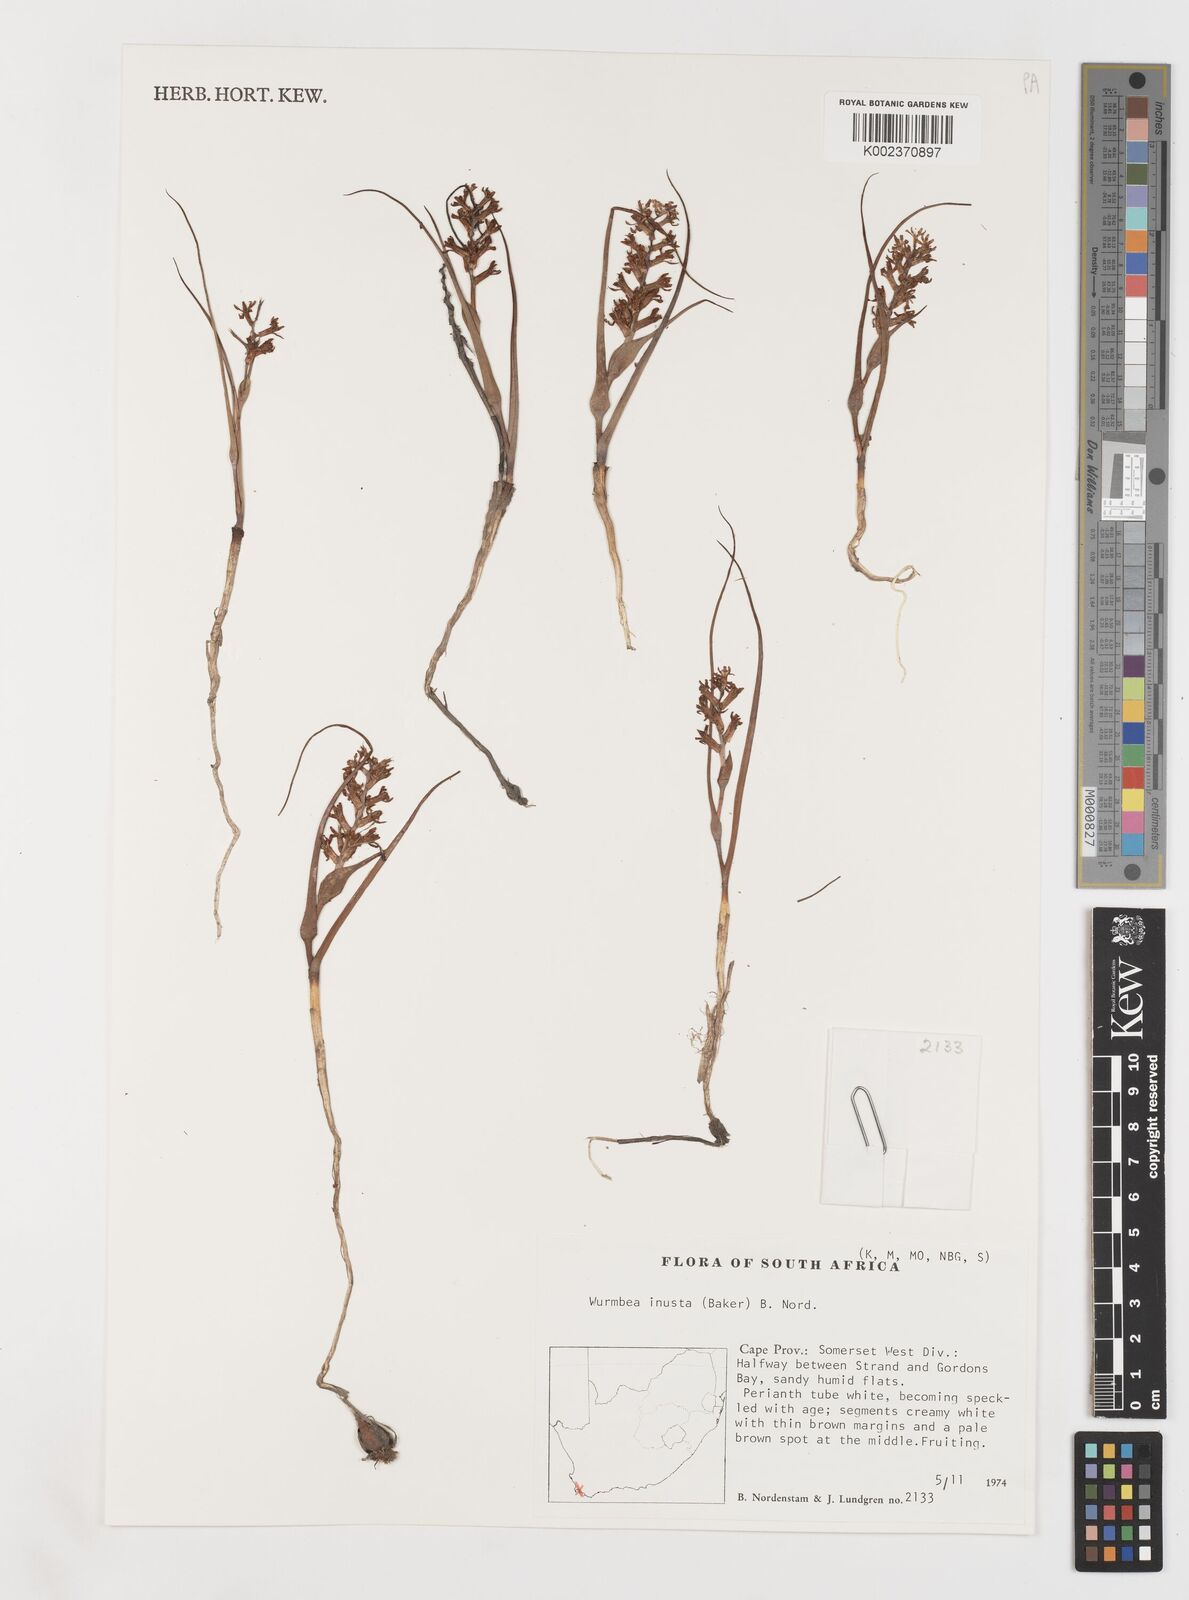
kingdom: Plantae
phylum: Tracheophyta
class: Liliopsida
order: Liliales
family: Colchicaceae
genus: Wurmbea
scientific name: Wurmbea inusta
